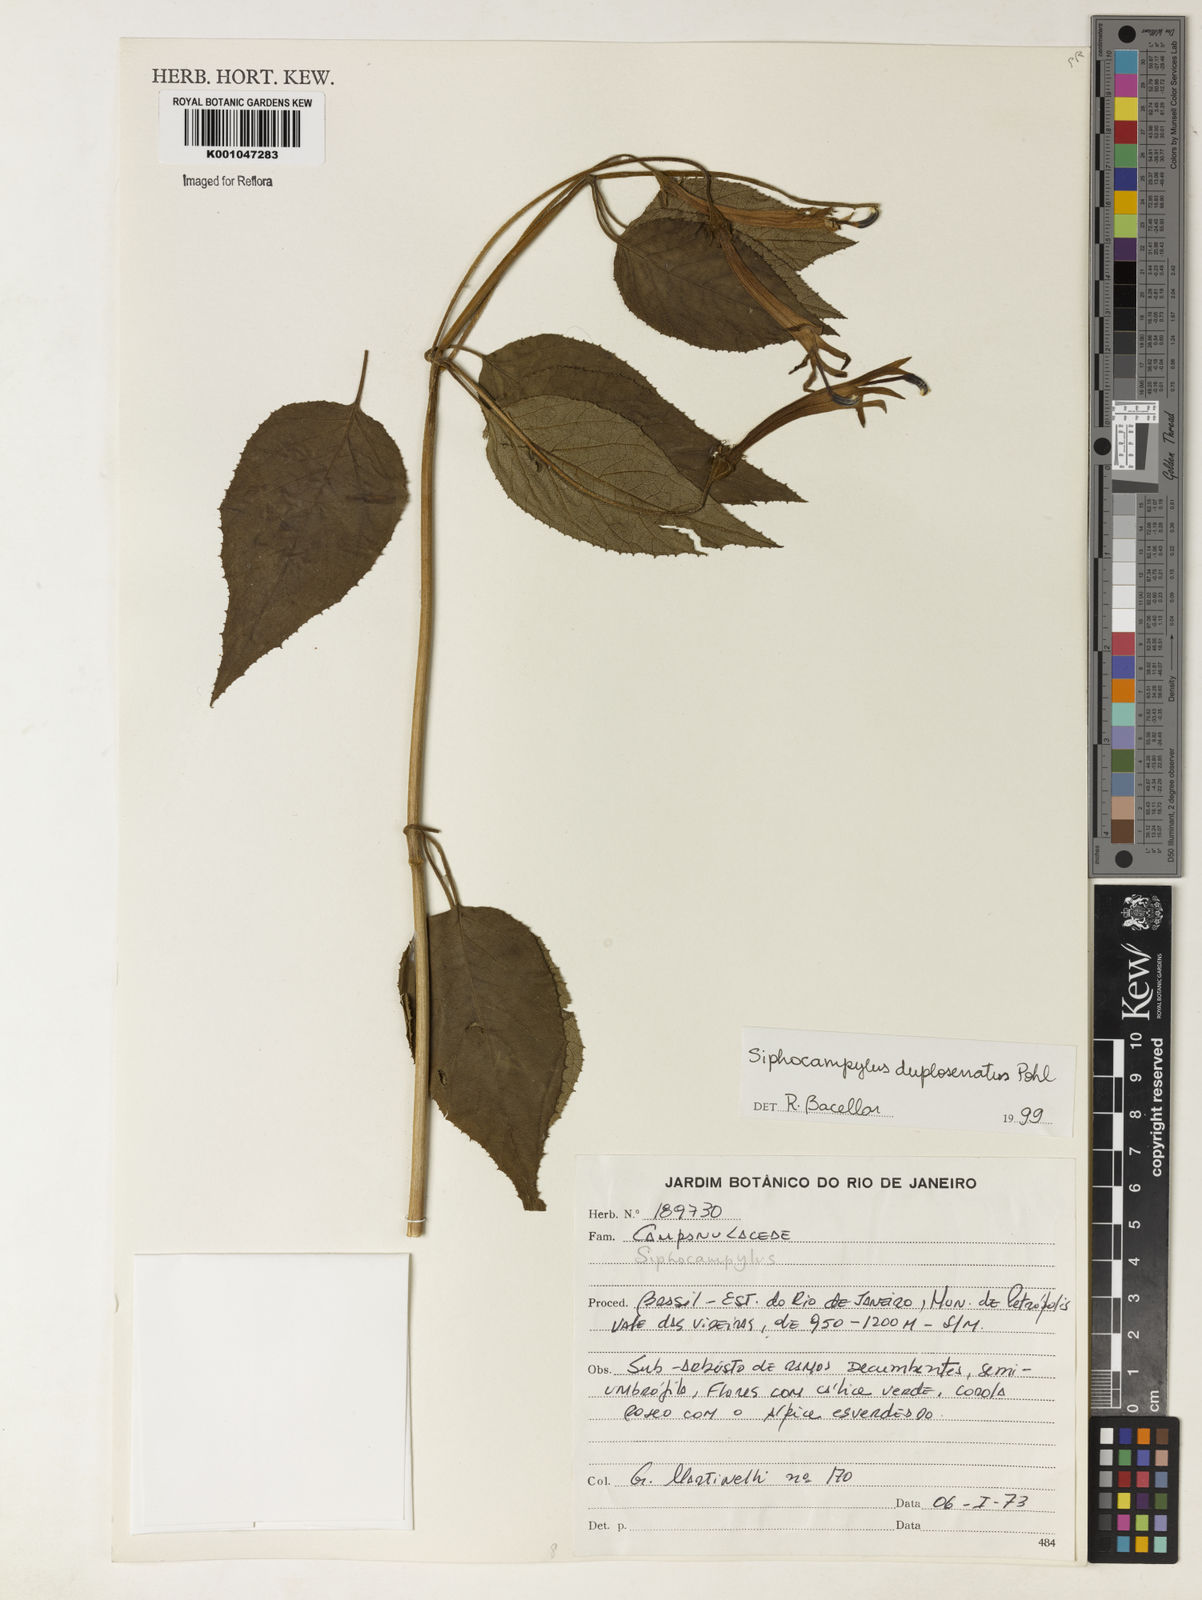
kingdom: Plantae
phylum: Tracheophyta
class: Magnoliopsida
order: Asterales
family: Campanulaceae
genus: Siphocampylus
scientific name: Siphocampylus duploserratus
